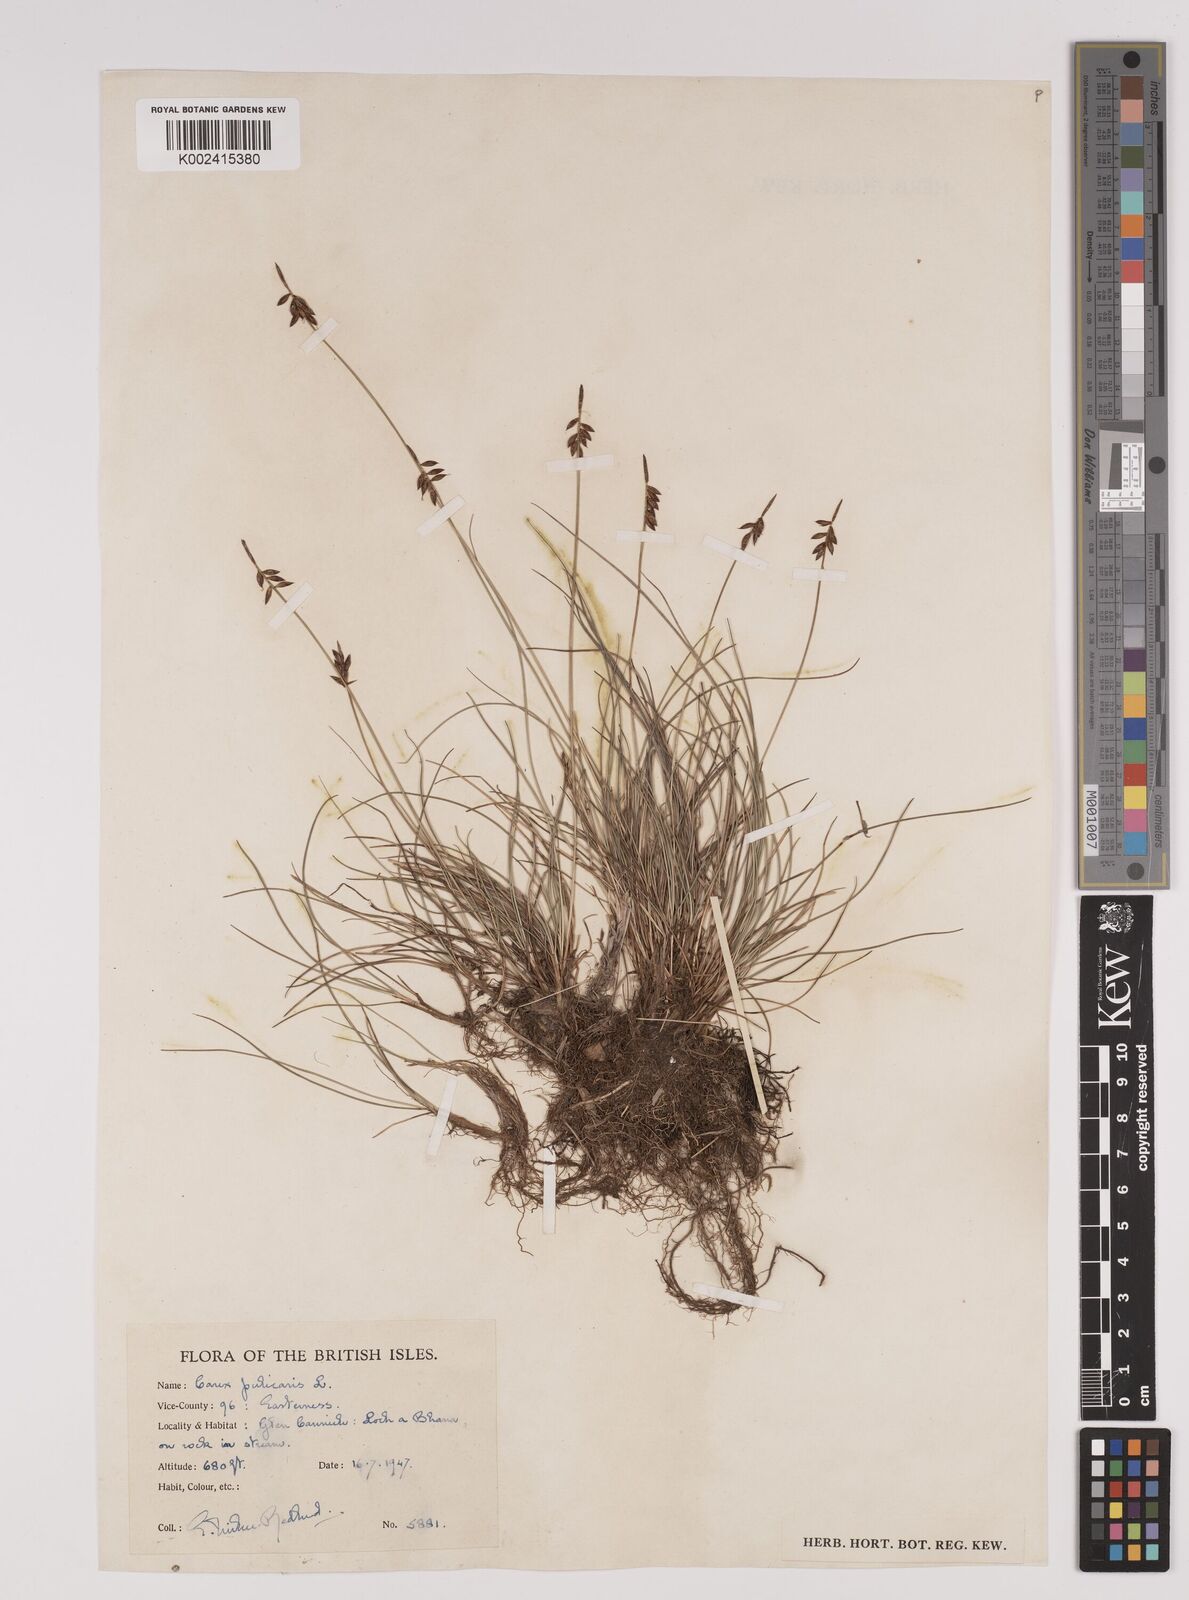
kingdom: Plantae
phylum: Tracheophyta
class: Liliopsida
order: Poales
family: Cyperaceae
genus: Carex
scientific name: Carex pulicaris
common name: Flea sedge
